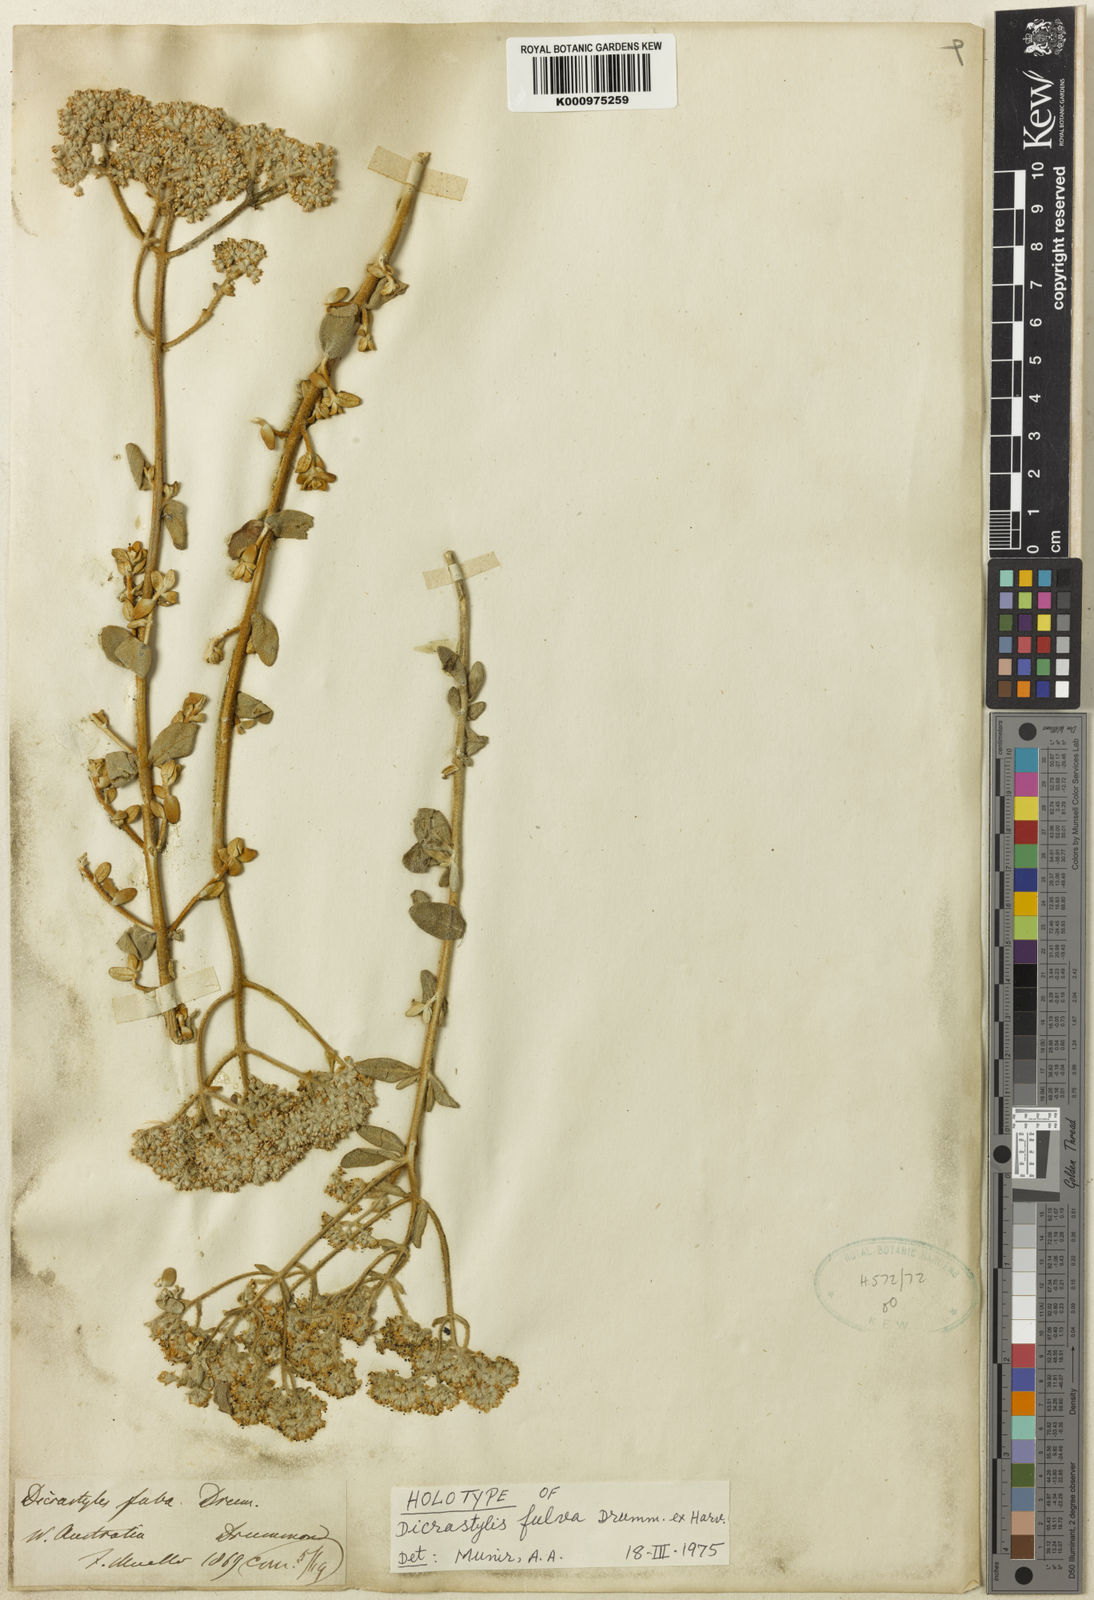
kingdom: Plantae
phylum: Tracheophyta
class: Magnoliopsida
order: Lamiales
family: Lamiaceae
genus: Dicrastylis
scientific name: Dicrastylis fulva
